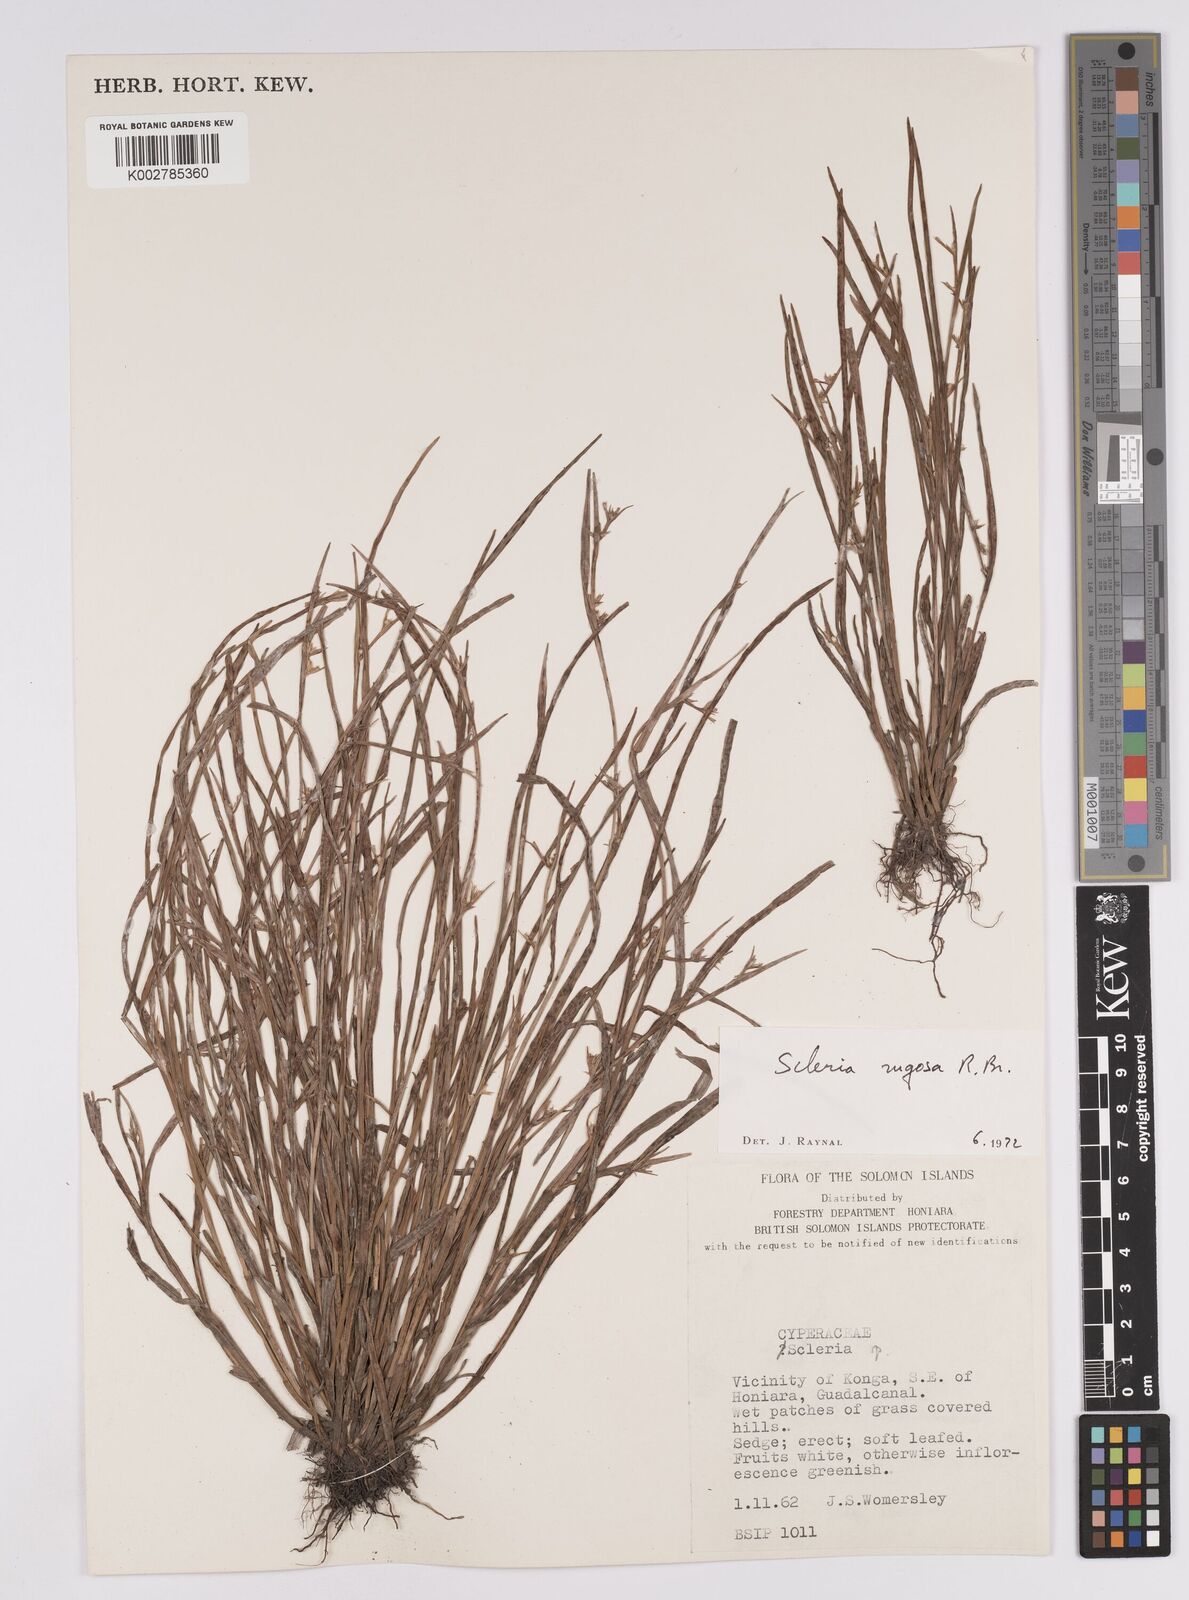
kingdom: Plantae
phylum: Tracheophyta
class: Liliopsida
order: Poales
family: Cyperaceae
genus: Scleria
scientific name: Scleria rugosa
